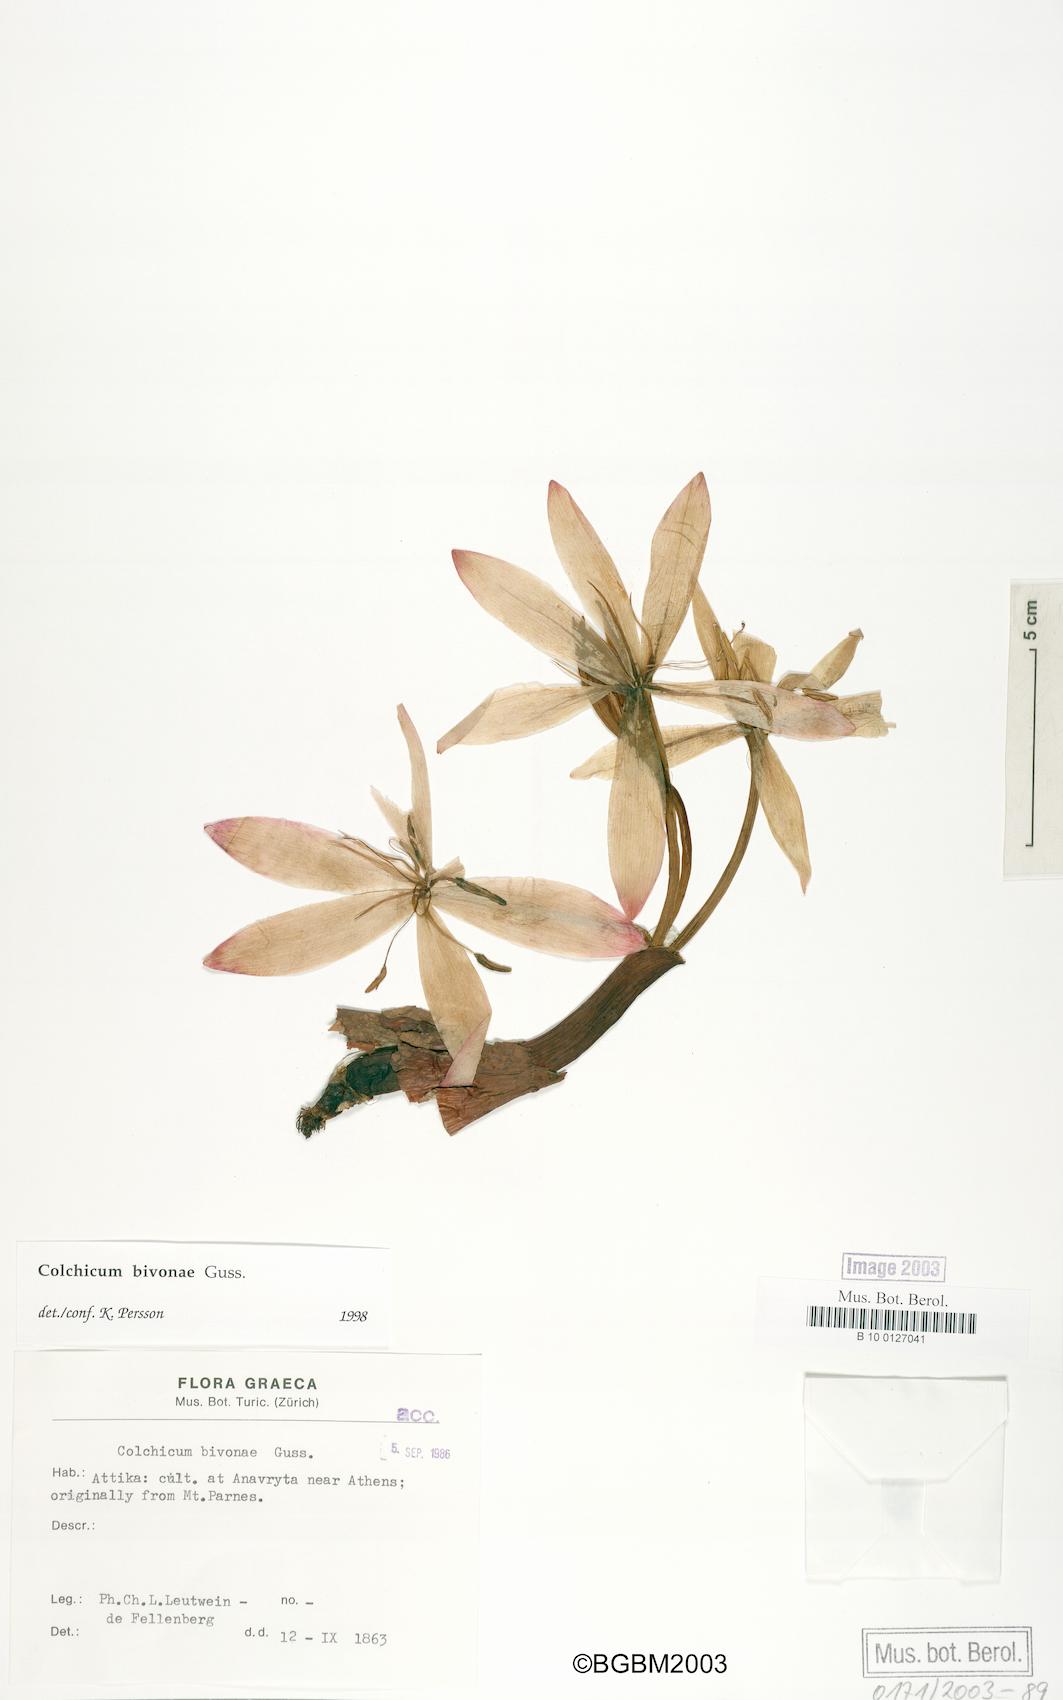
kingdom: Plantae
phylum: Tracheophyta
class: Liliopsida
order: Liliales
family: Colchicaceae
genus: Colchicum
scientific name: Colchicum bivonae
